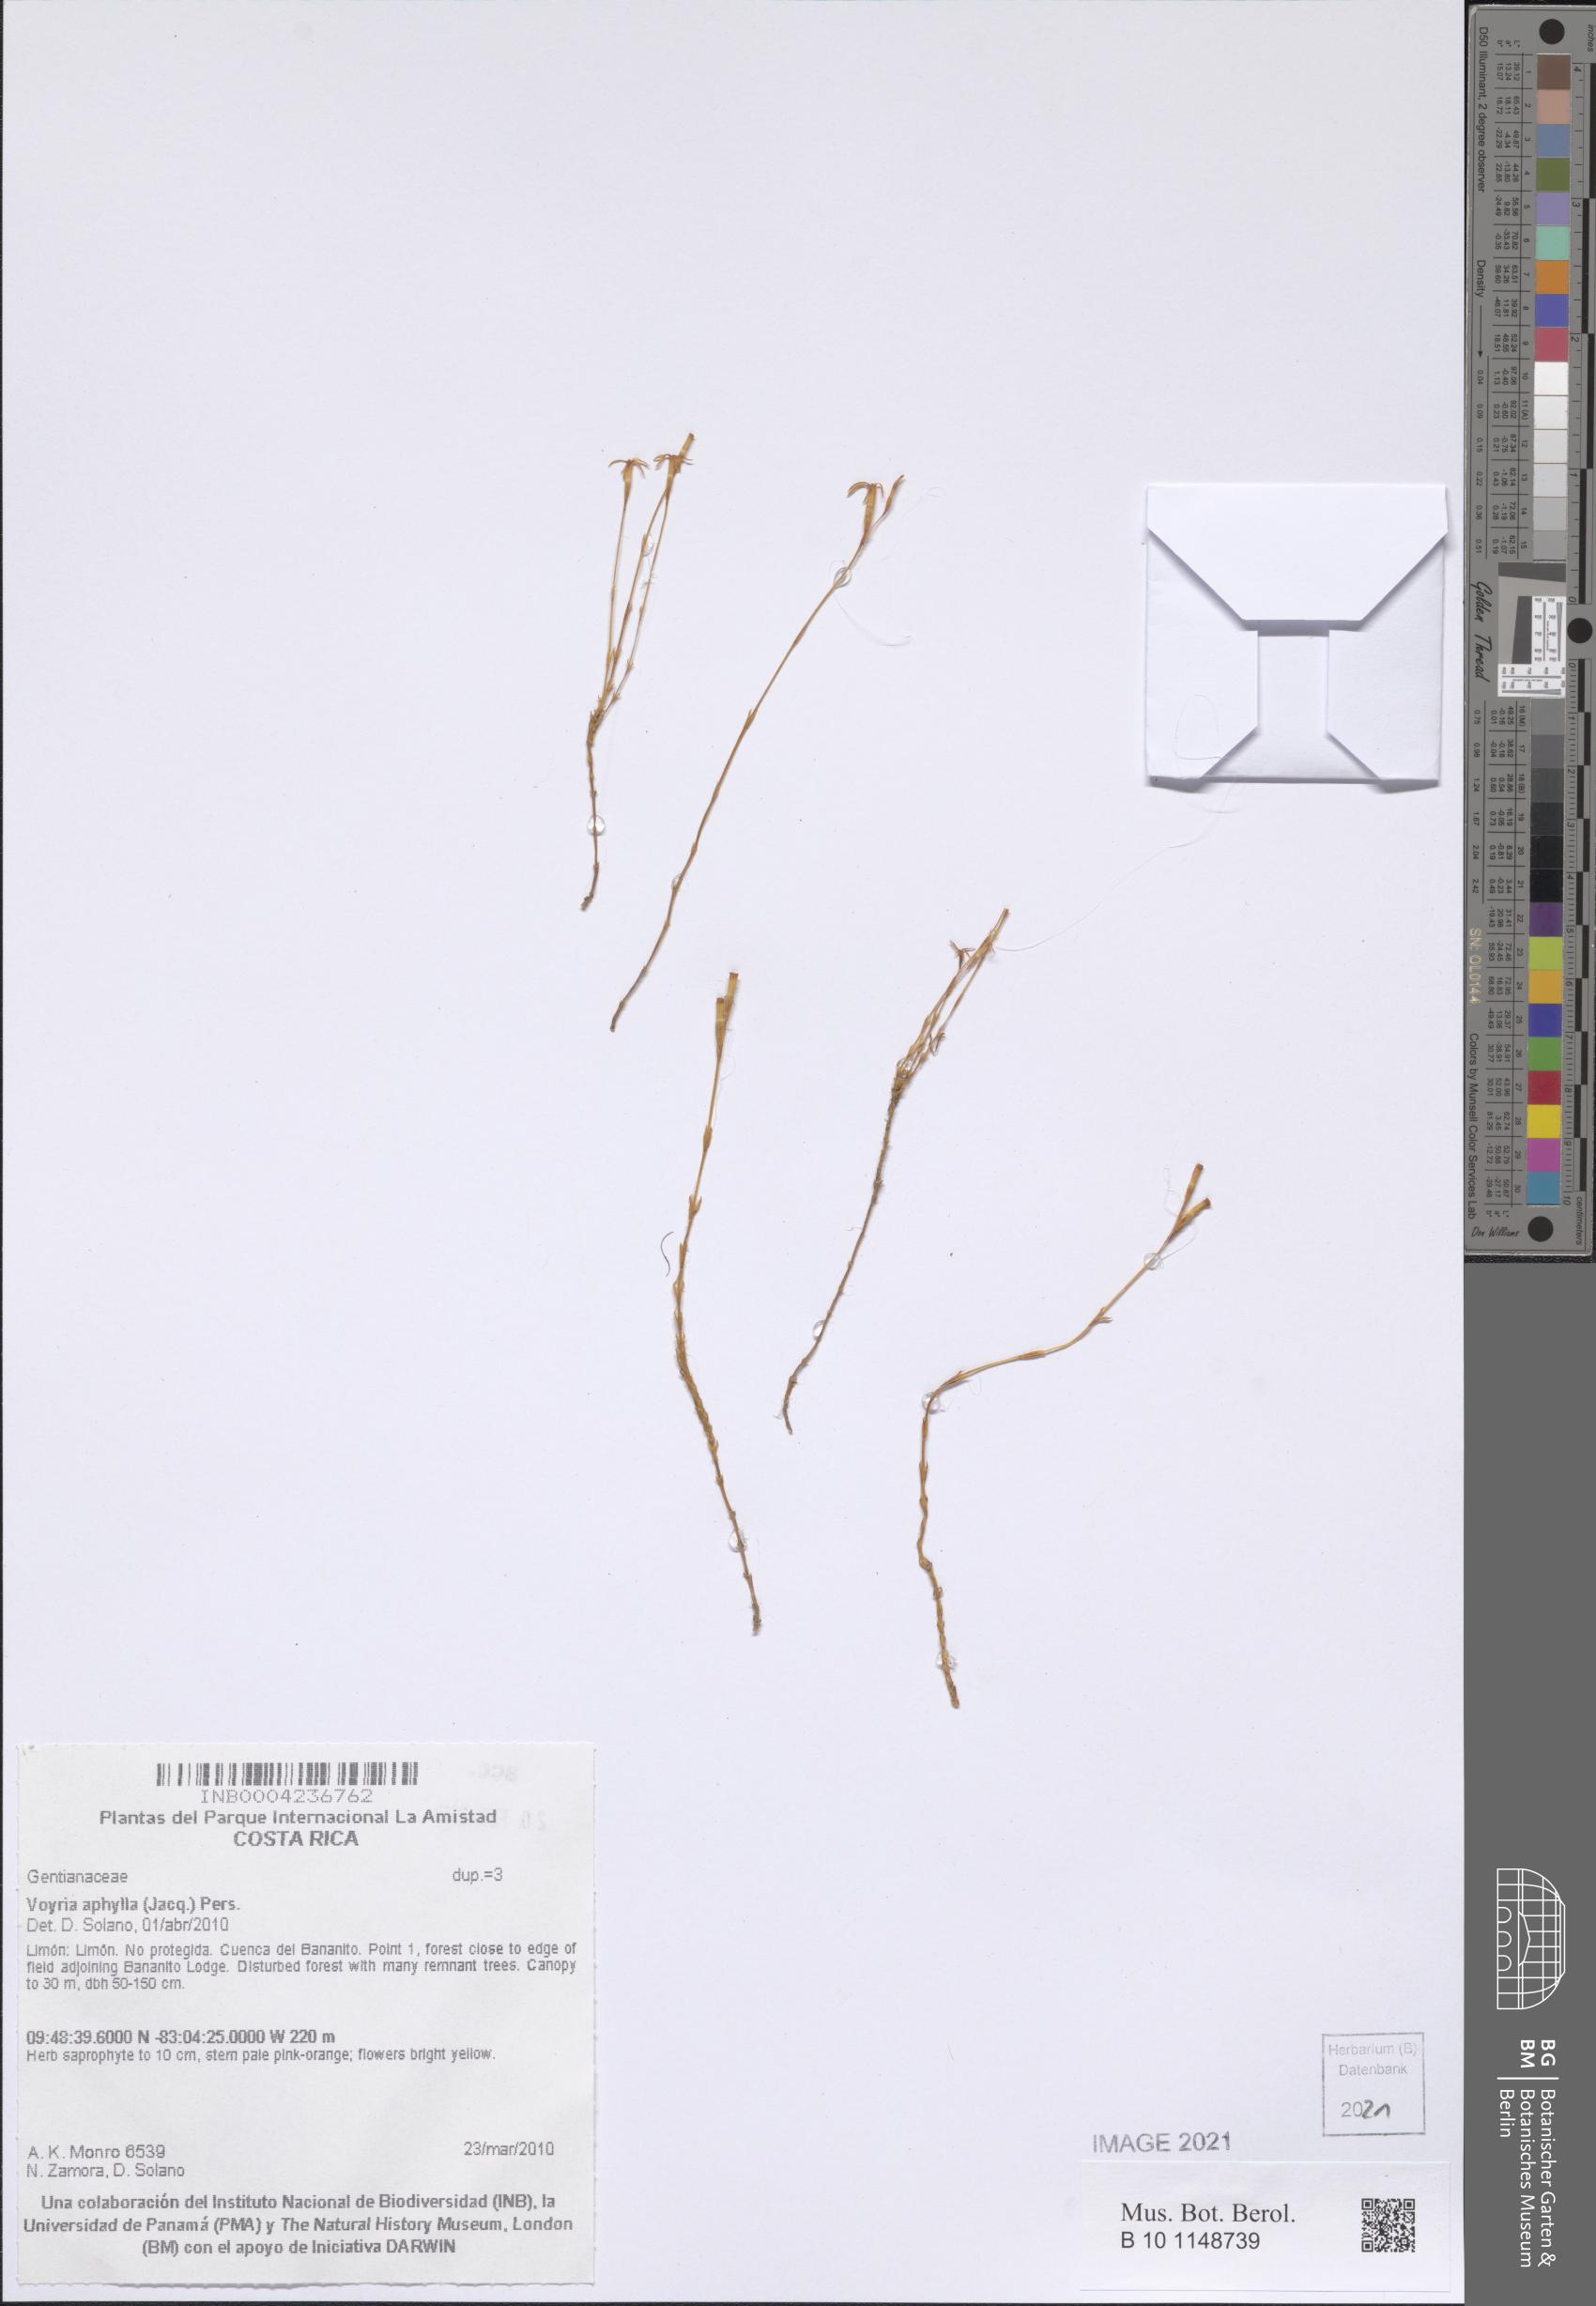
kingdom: Plantae
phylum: Tracheophyta
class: Magnoliopsida
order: Gentianales
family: Gentianaceae
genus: Voyria
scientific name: Voyria aphylla
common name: Leafless ghost plant
